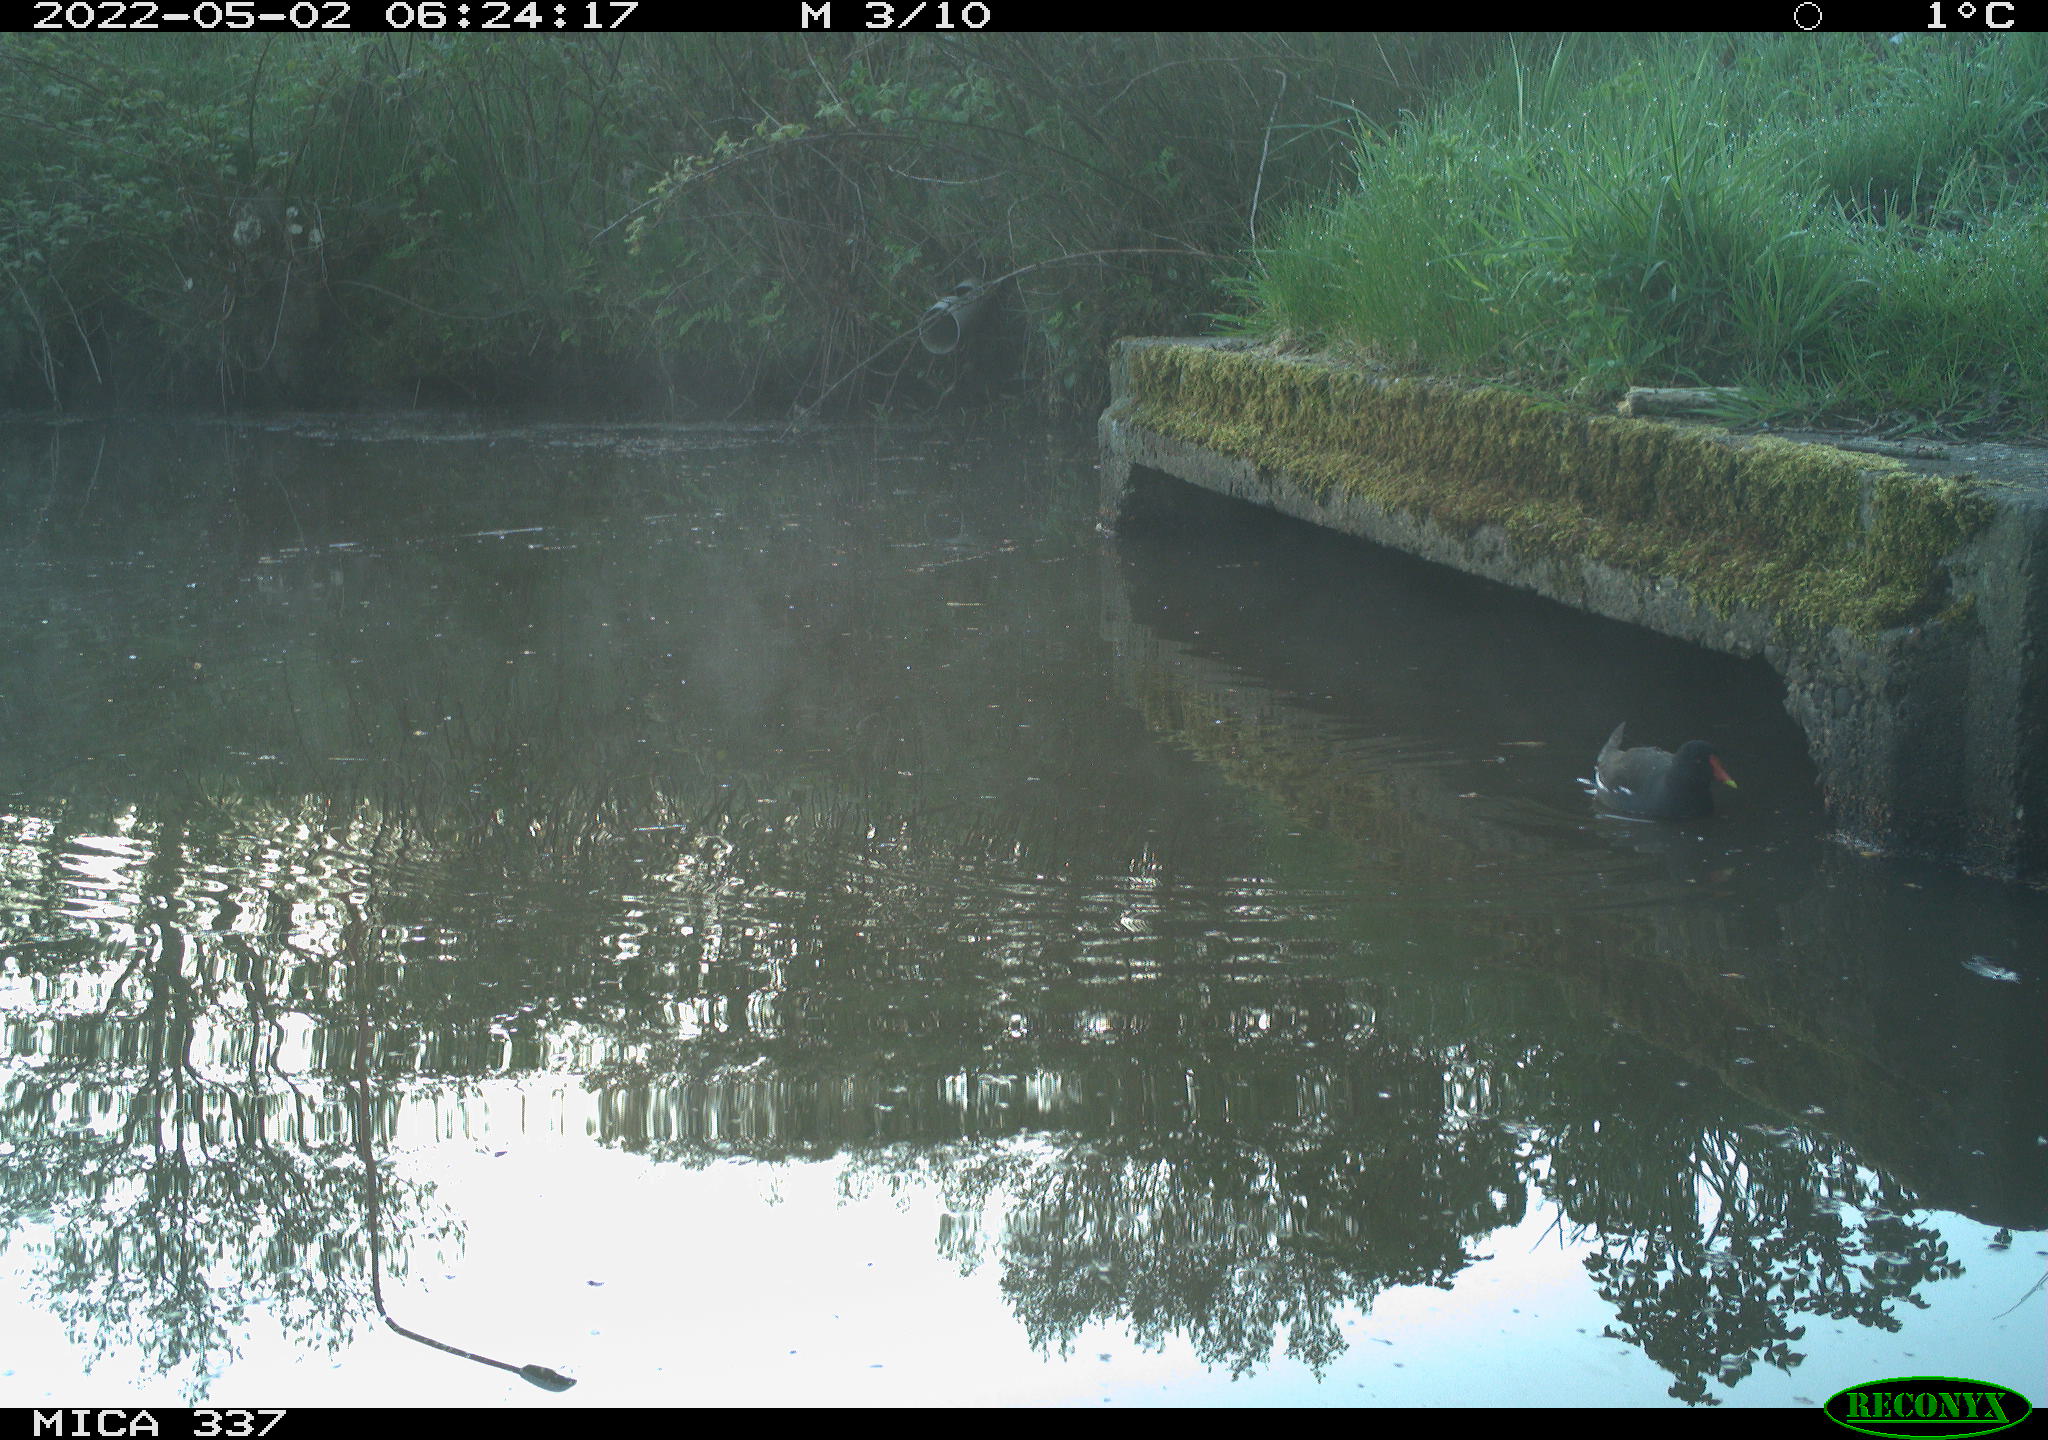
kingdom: Animalia
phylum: Chordata
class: Aves
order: Gruiformes
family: Rallidae
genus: Gallinula
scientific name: Gallinula chloropus
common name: Common moorhen
